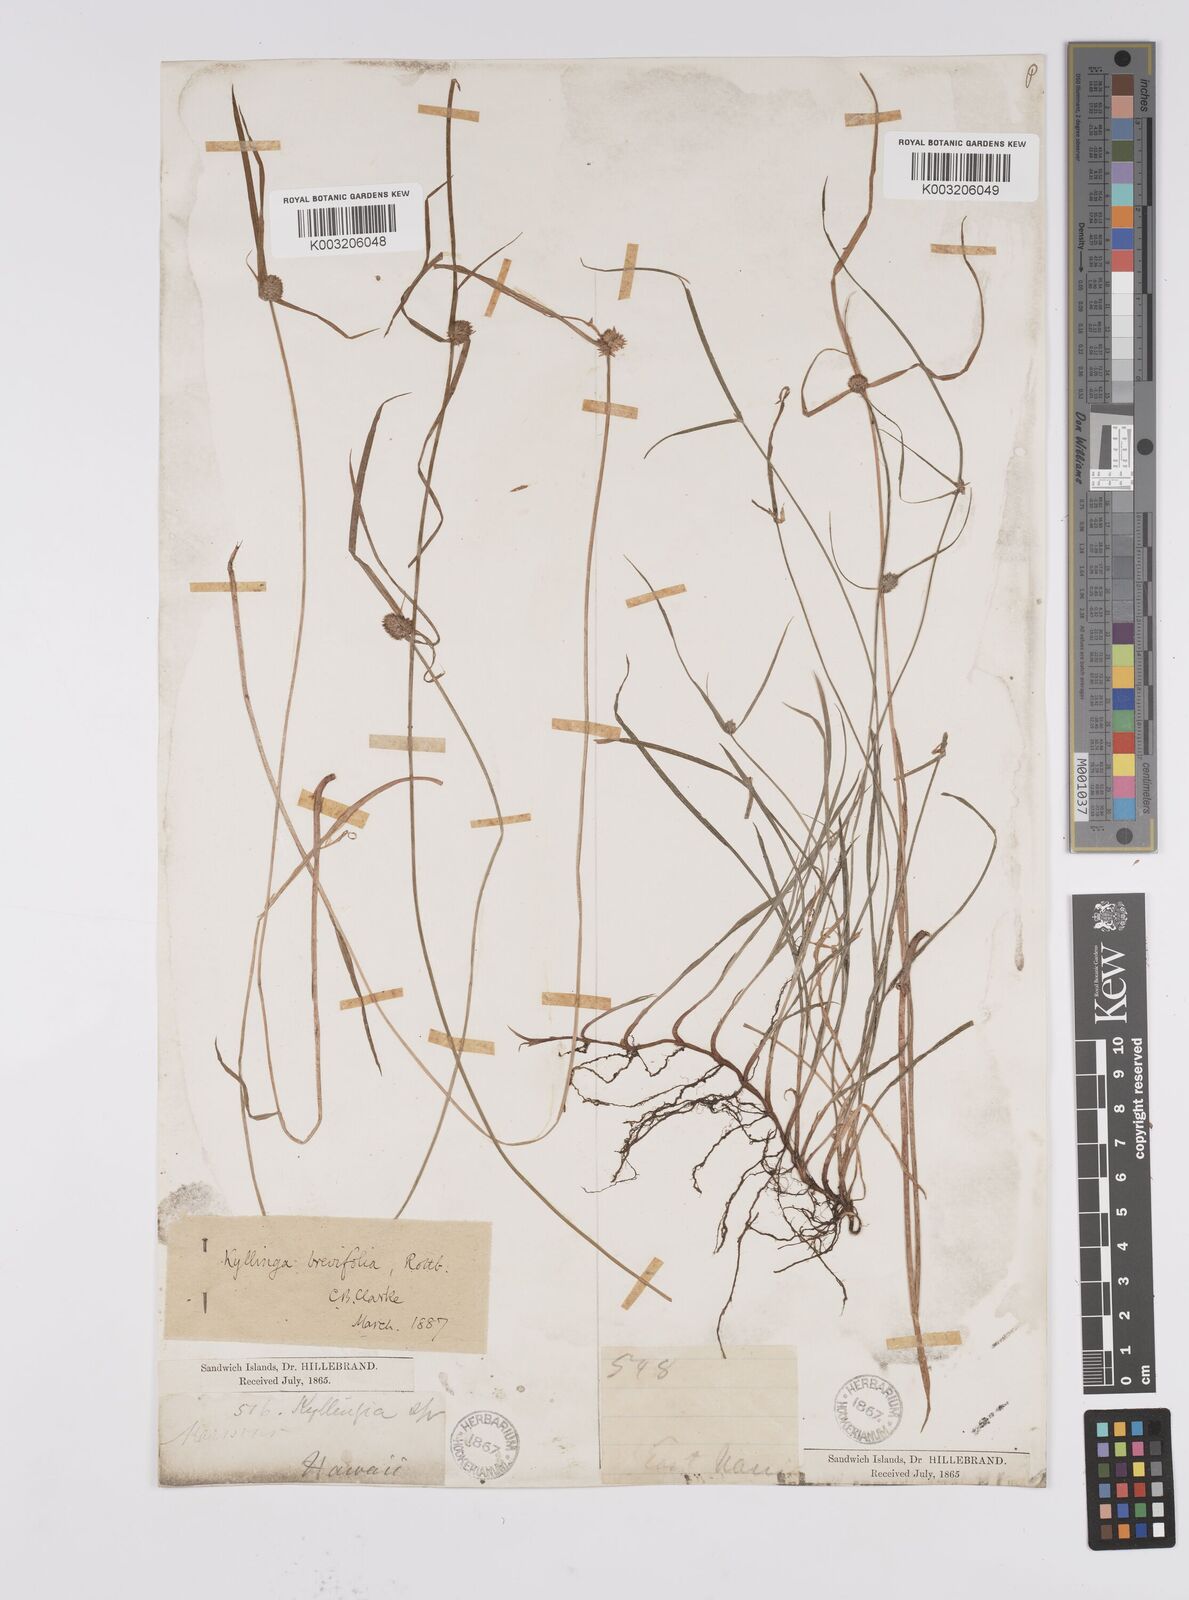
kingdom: Plantae
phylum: Tracheophyta
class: Liliopsida
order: Poales
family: Cyperaceae
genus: Cyperus
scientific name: Cyperus brevifolius
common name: Globe kyllinga
